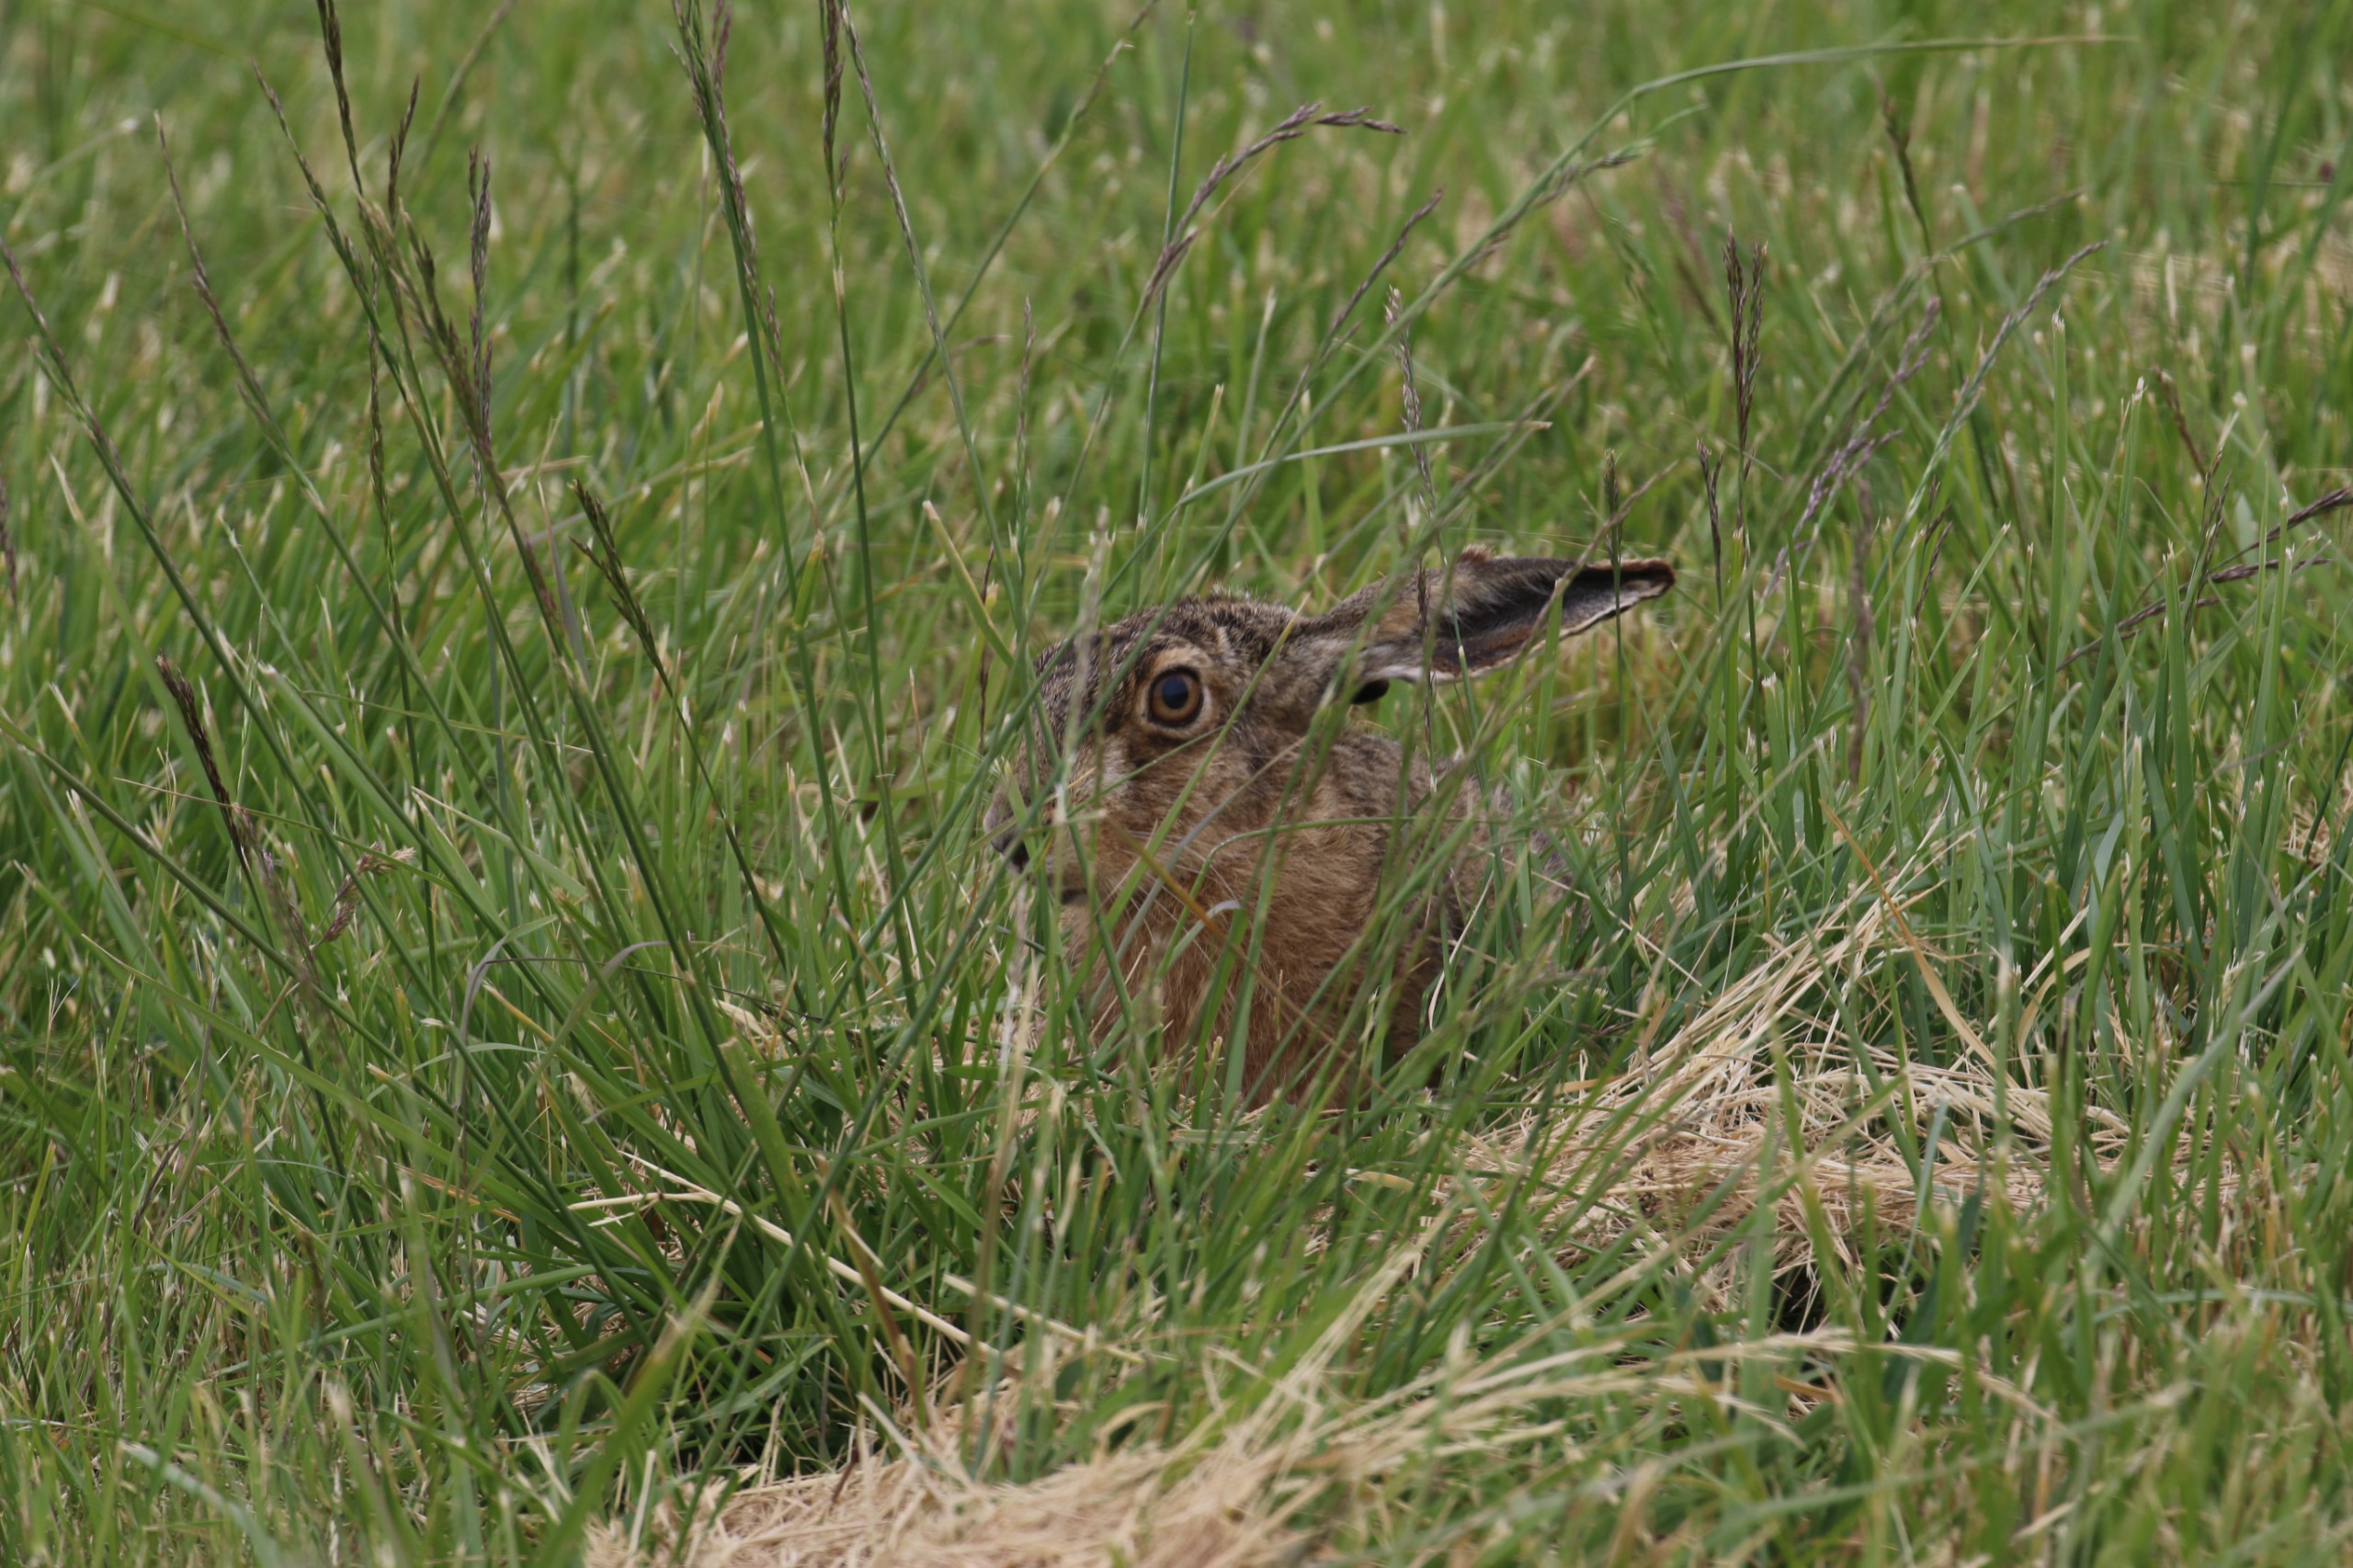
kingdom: Animalia
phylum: Chordata
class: Mammalia
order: Lagomorpha
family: Leporidae
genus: Lepus
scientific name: Lepus europaeus
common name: Hare
